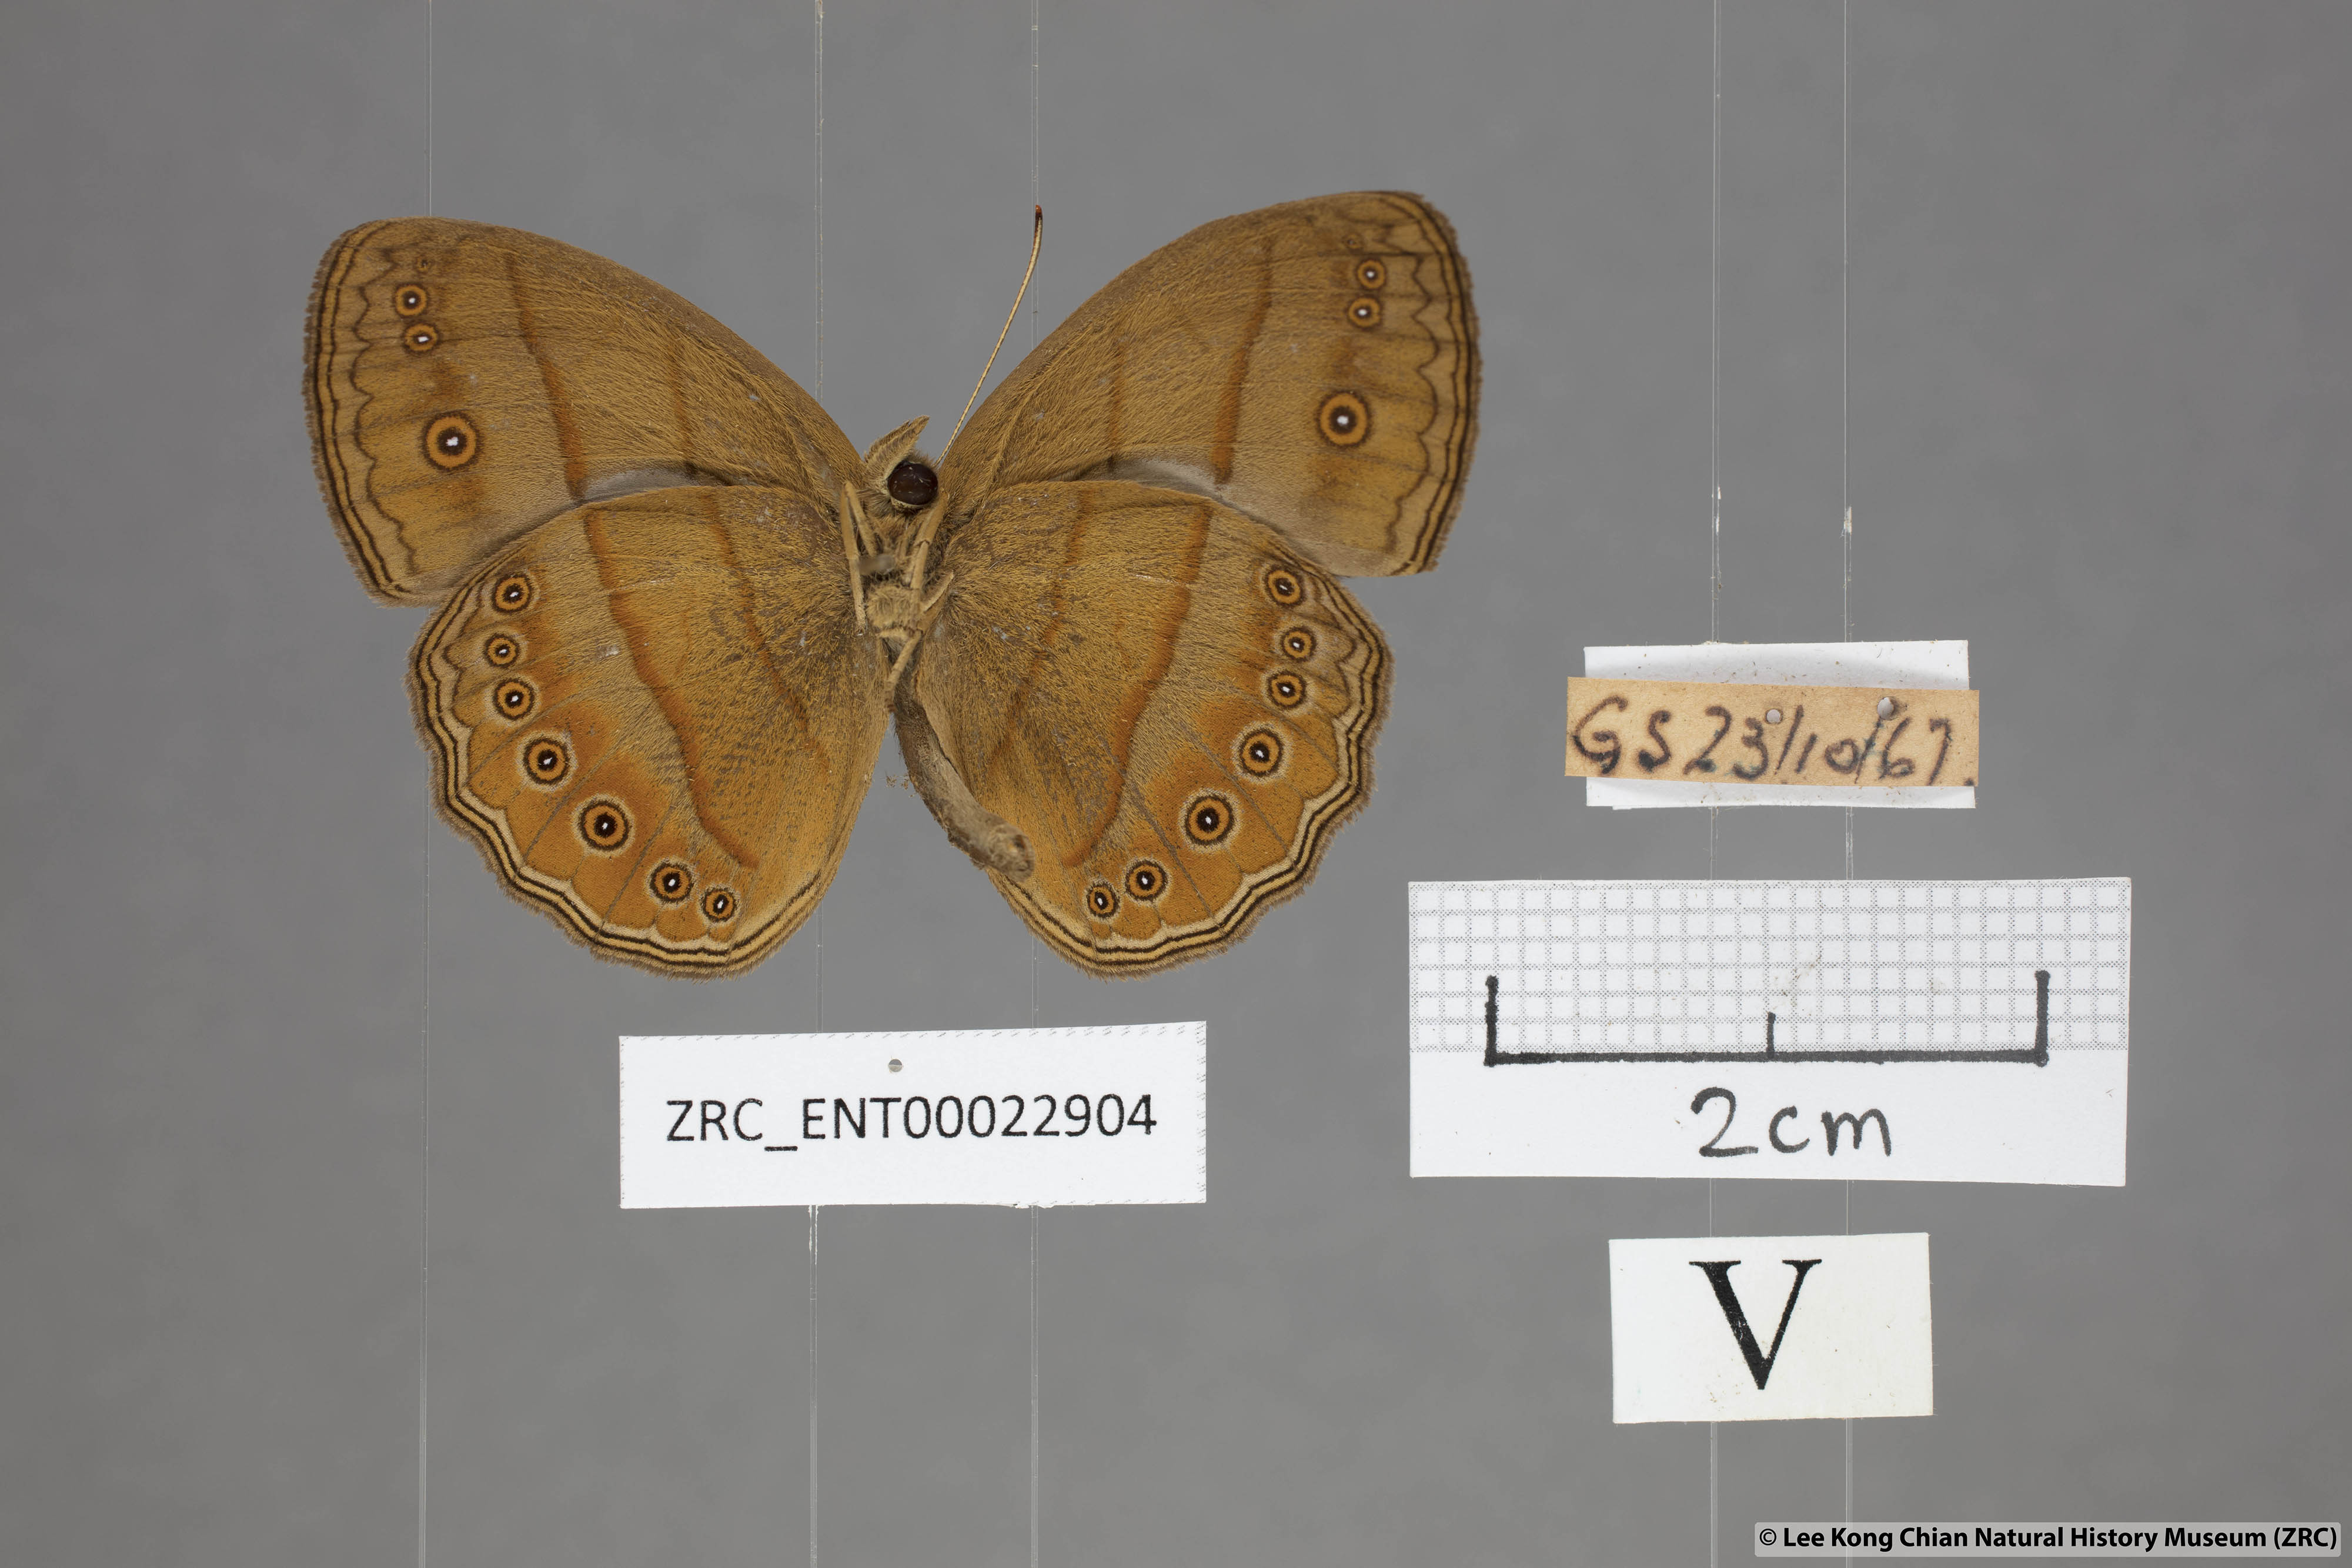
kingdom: Animalia
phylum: Arthropoda
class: Insecta
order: Lepidoptera
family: Nymphalidae
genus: Mycalesis
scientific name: Mycalesis fuscum
